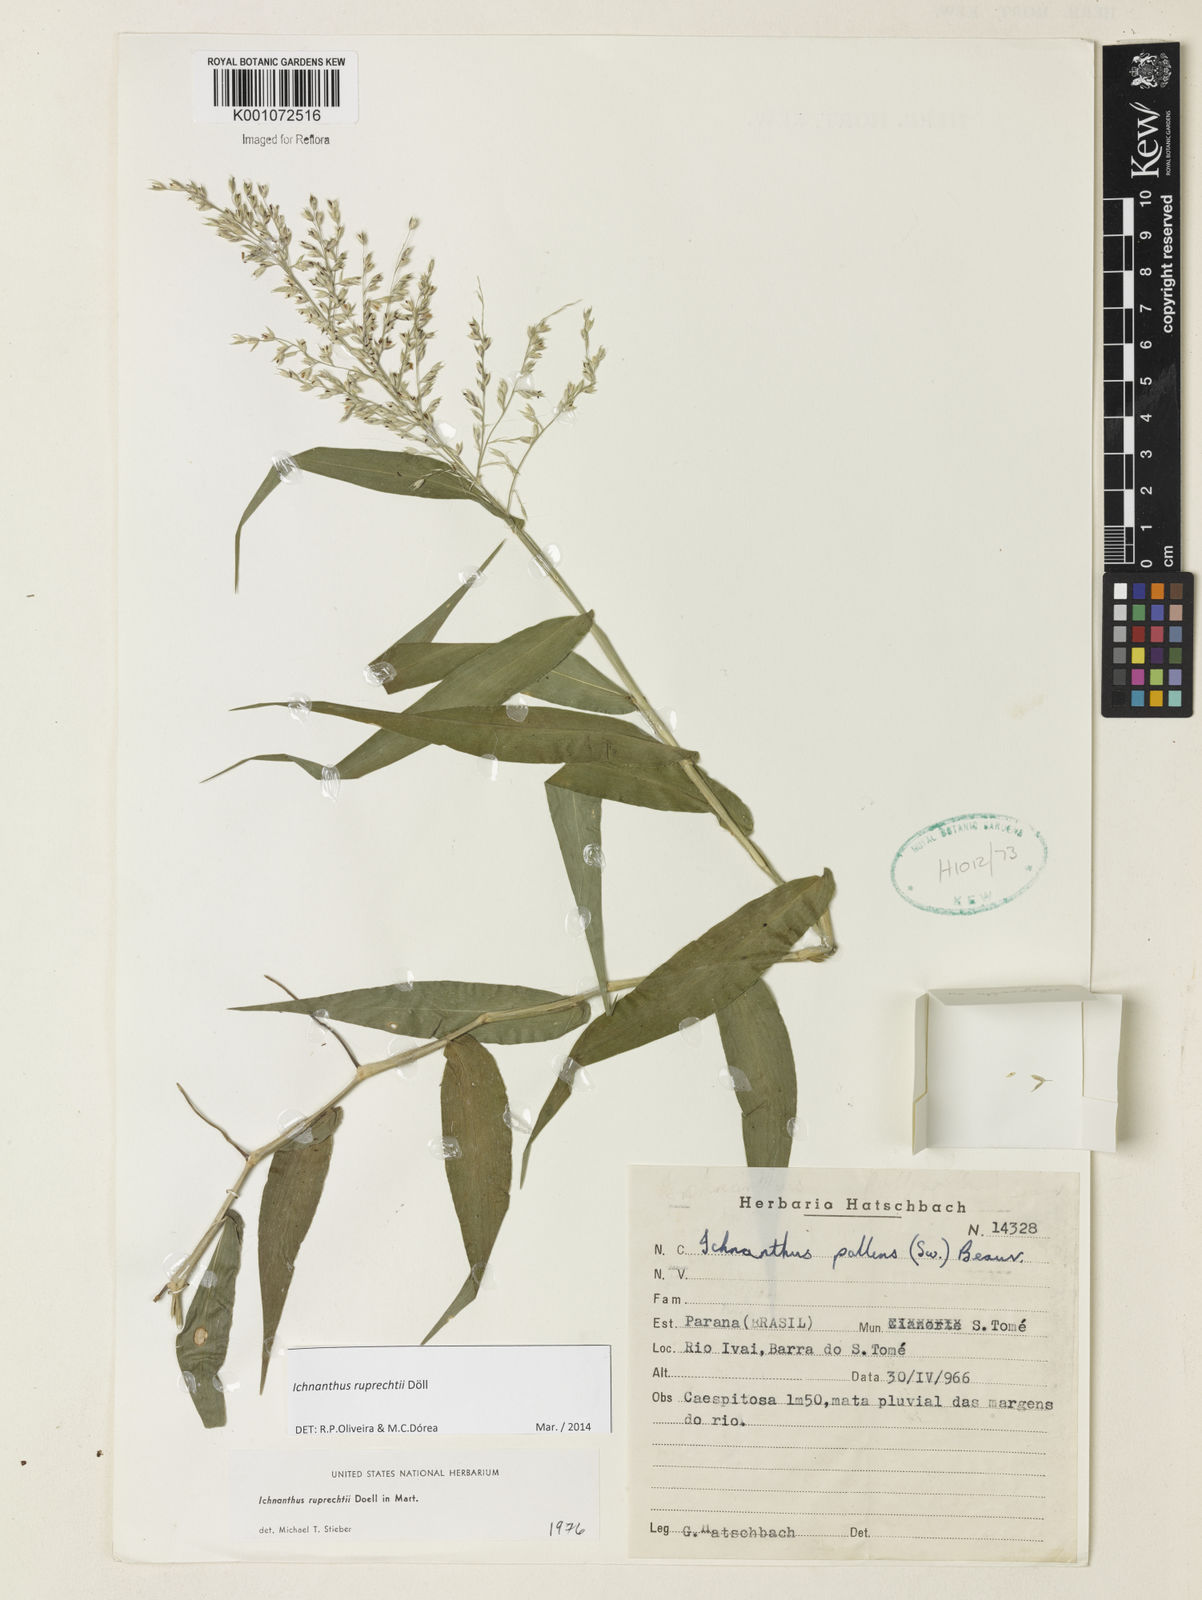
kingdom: Plantae
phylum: Tracheophyta
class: Liliopsida
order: Poales
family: Poaceae
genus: Ichnanthus
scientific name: Ichnanthus
